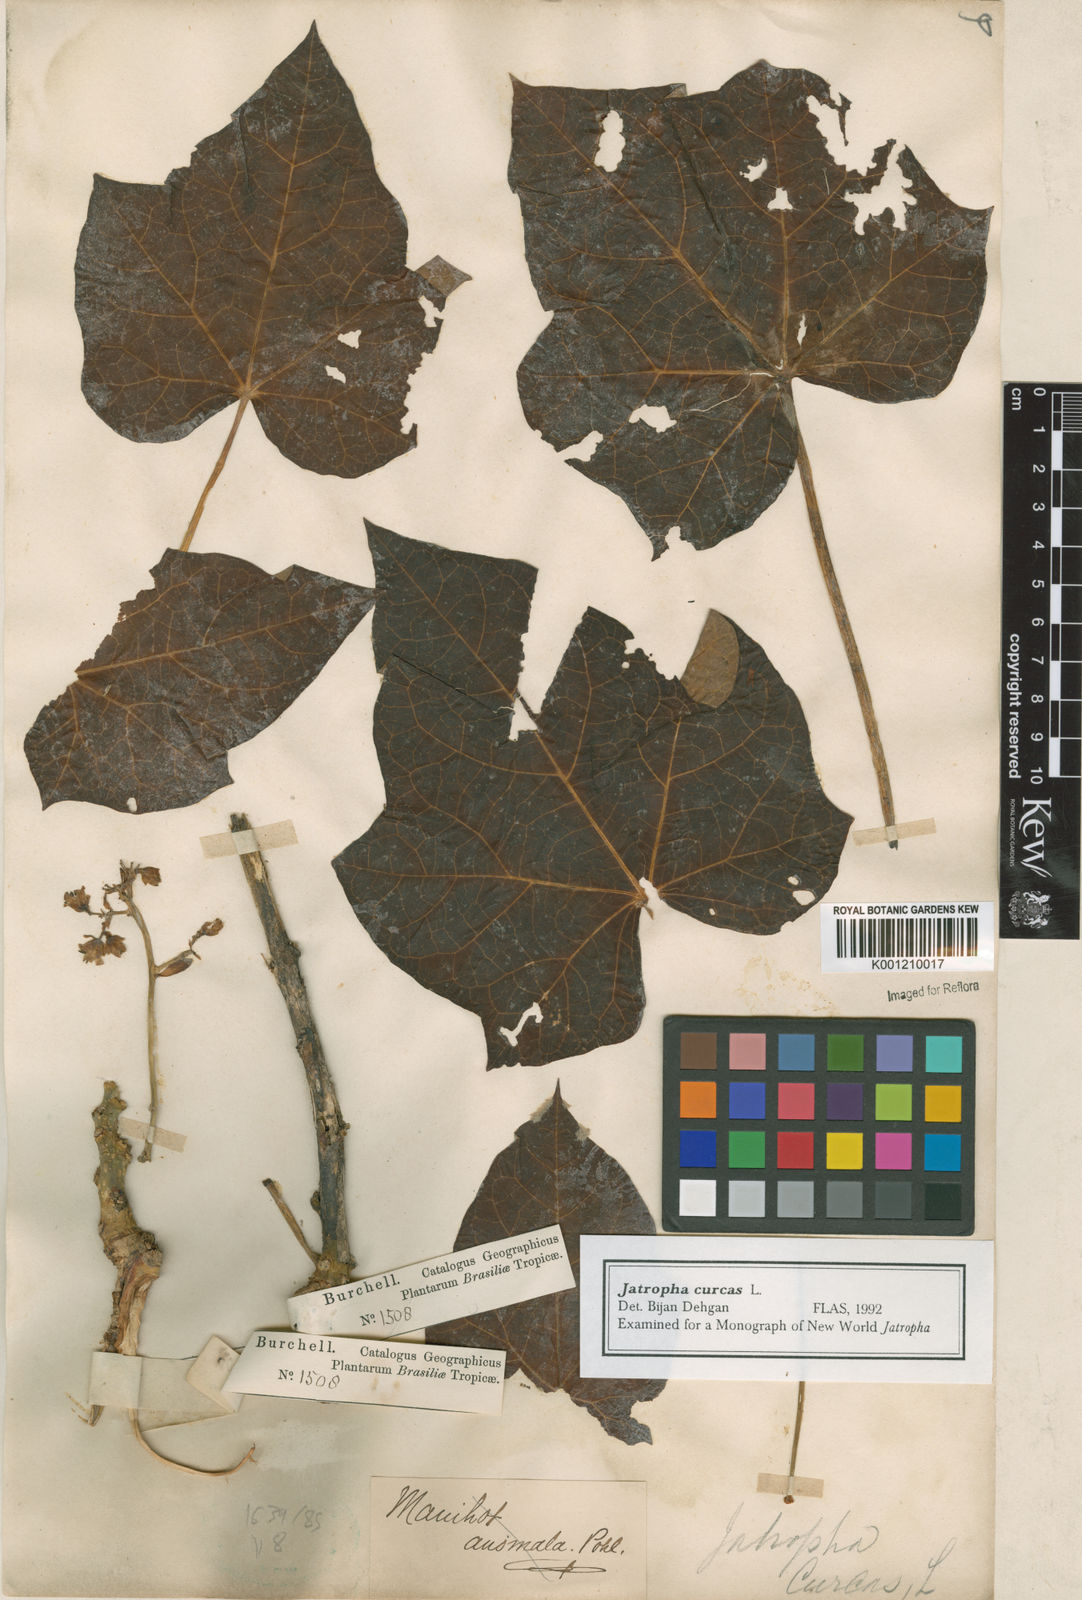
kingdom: Plantae
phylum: Tracheophyta
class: Magnoliopsida
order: Malpighiales
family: Euphorbiaceae
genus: Jatropha
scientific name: Jatropha curcas
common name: Barbados nut
